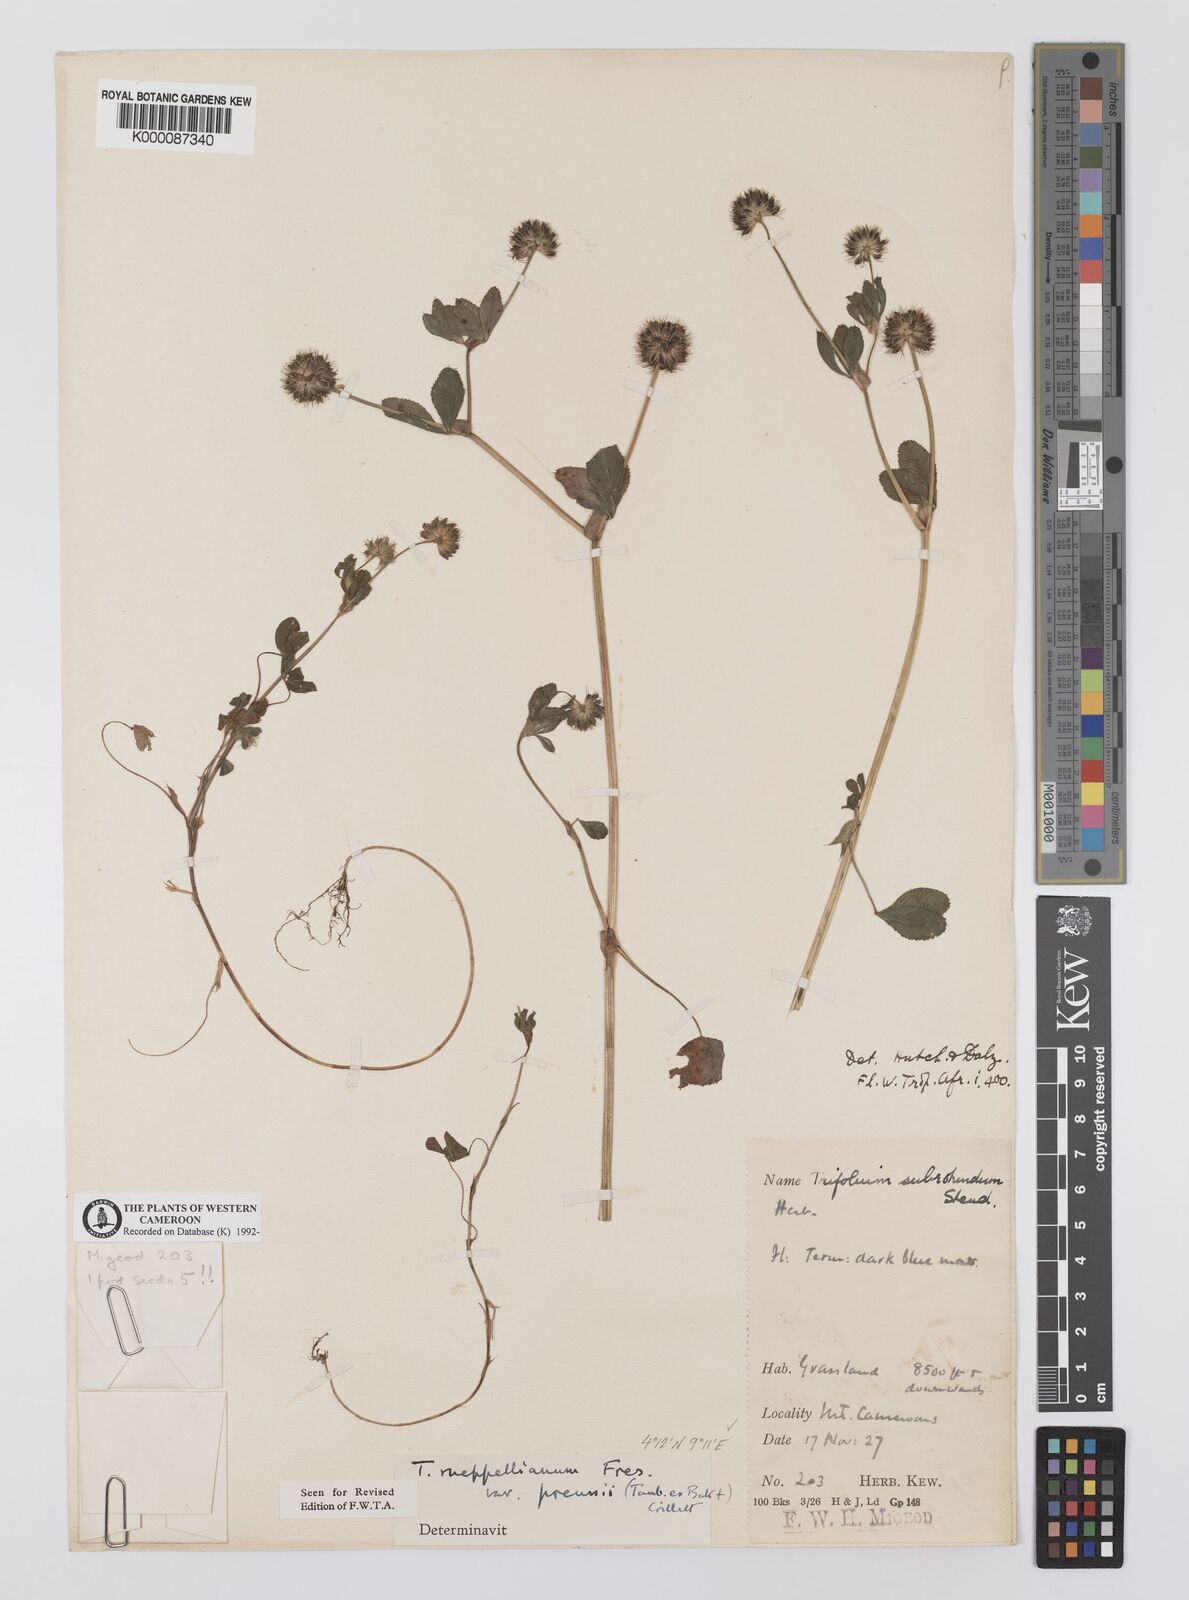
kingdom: Plantae
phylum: Tracheophyta
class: Magnoliopsida
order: Fabales
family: Fabaceae
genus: Trifolium
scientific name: Trifolium rueppellianum
